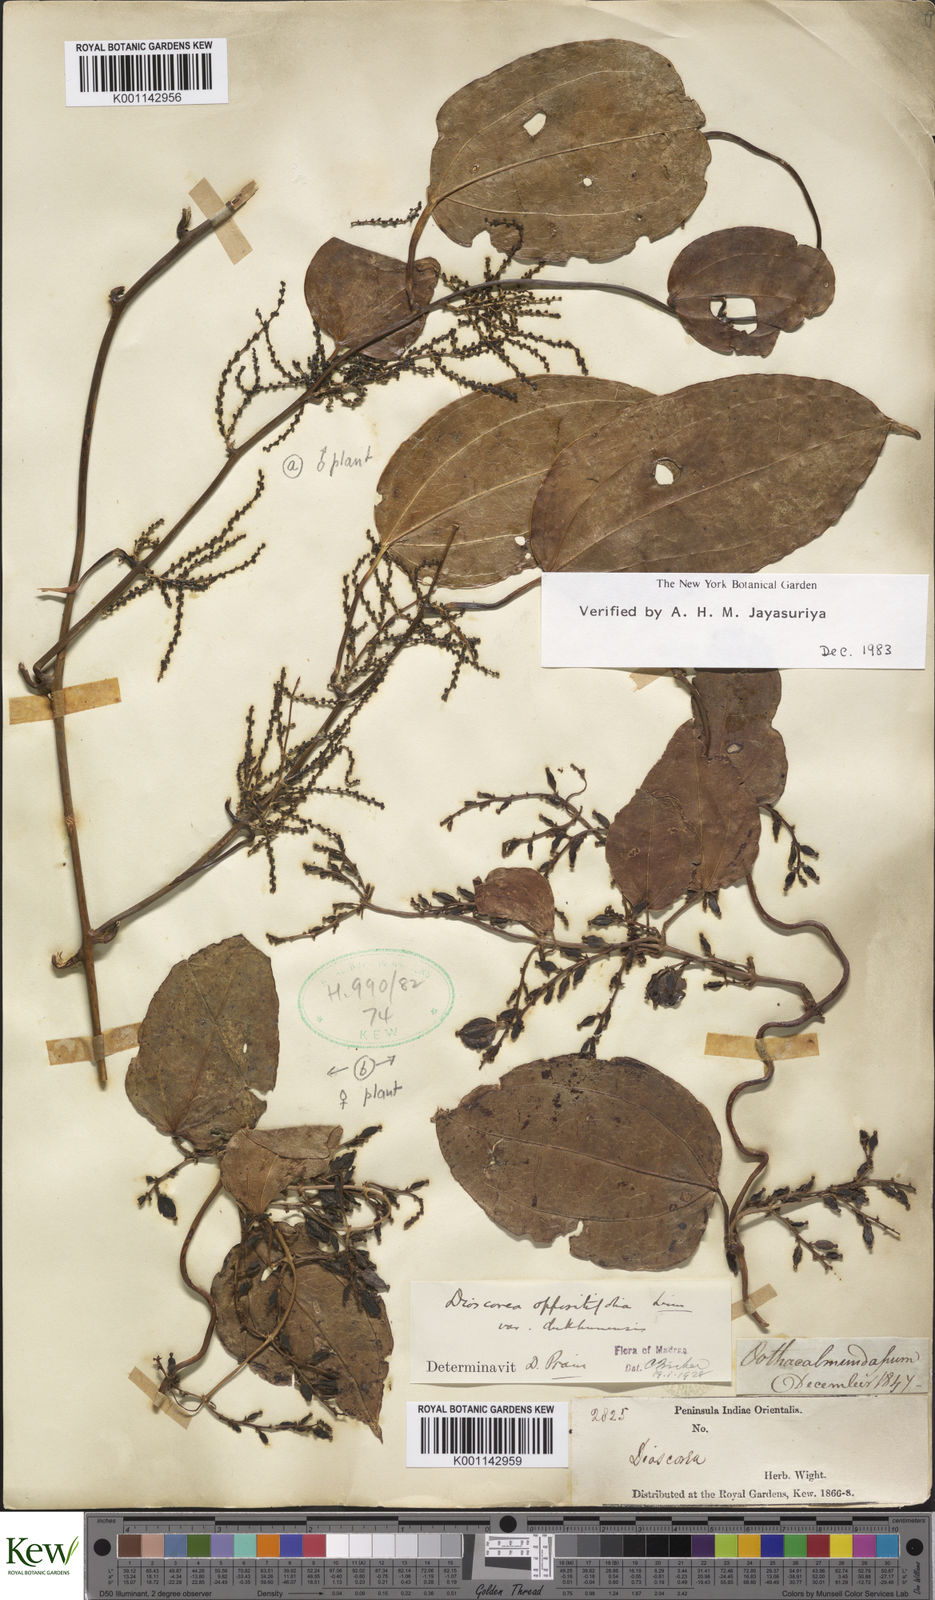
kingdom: Plantae
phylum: Tracheophyta
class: Liliopsida
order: Dioscoreales
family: Dioscoreaceae
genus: Dioscorea
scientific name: Dioscorea oppositifolia
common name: Chinese yam
